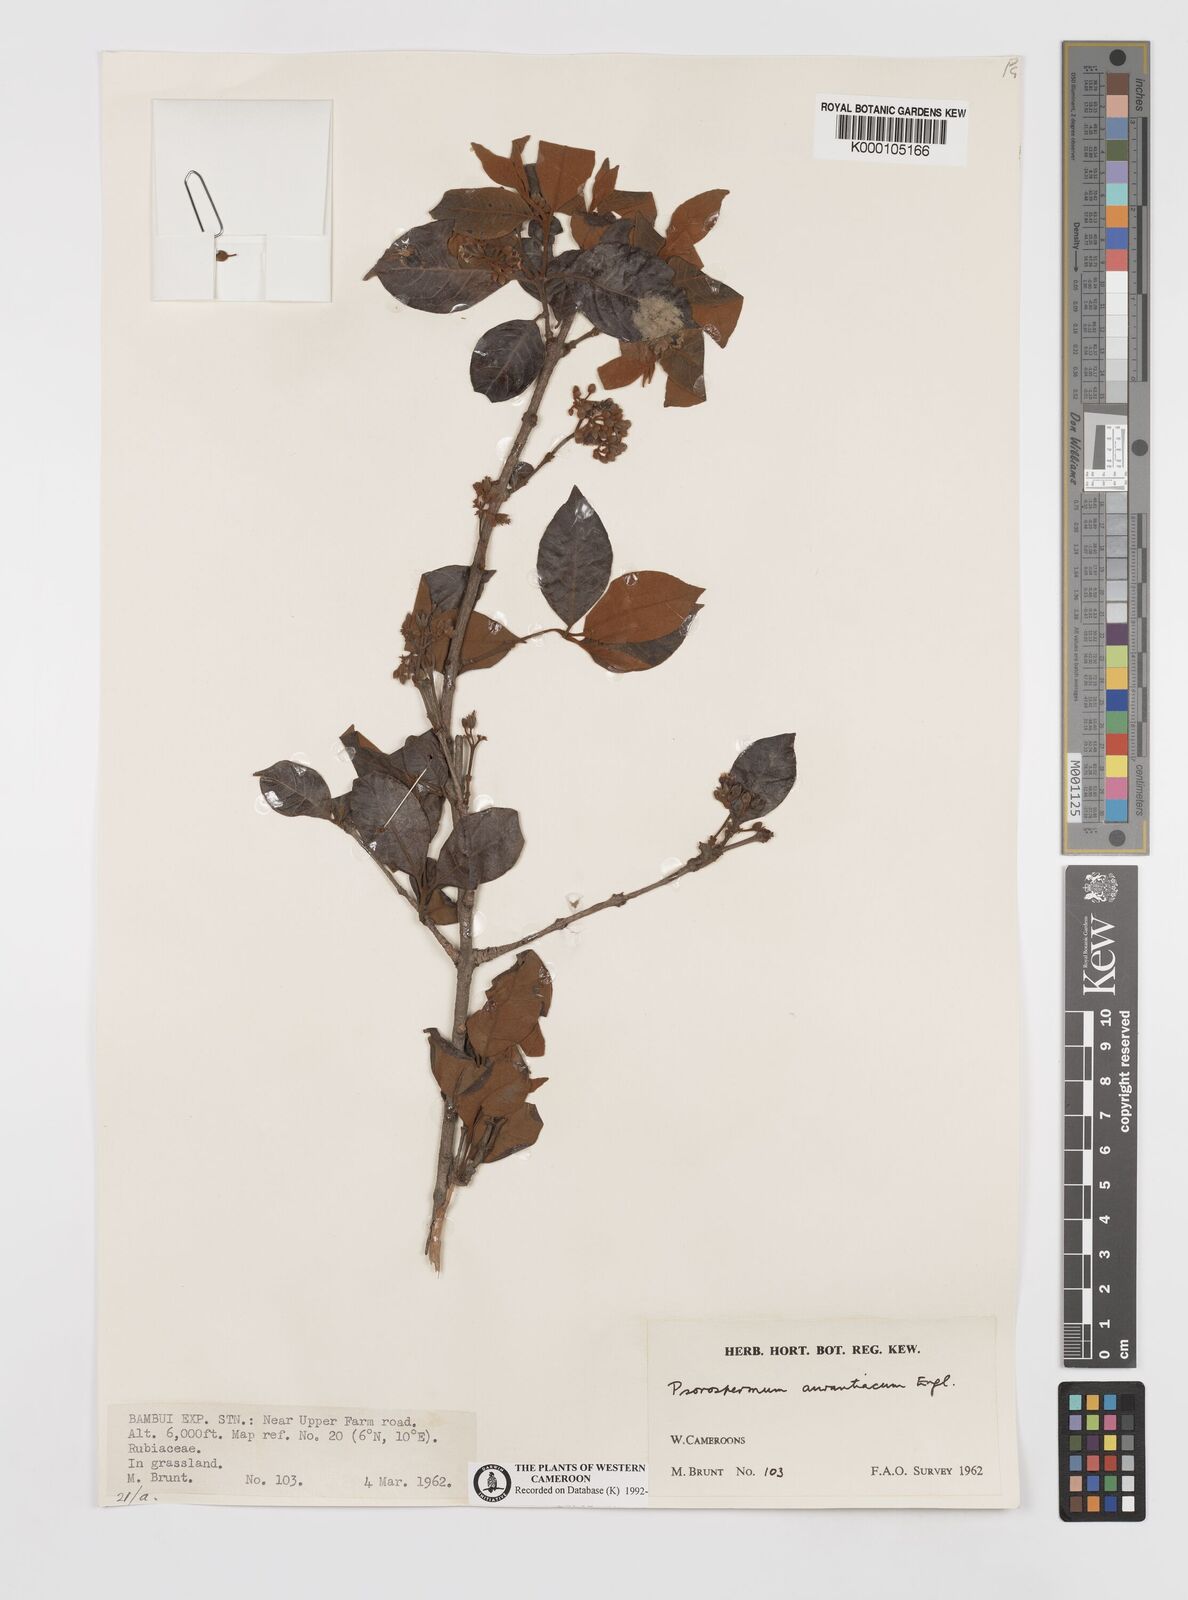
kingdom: Plantae
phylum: Tracheophyta
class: Magnoliopsida
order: Malpighiales
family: Hypericaceae
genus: Psorospermum
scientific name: Psorospermum aurantiacum
